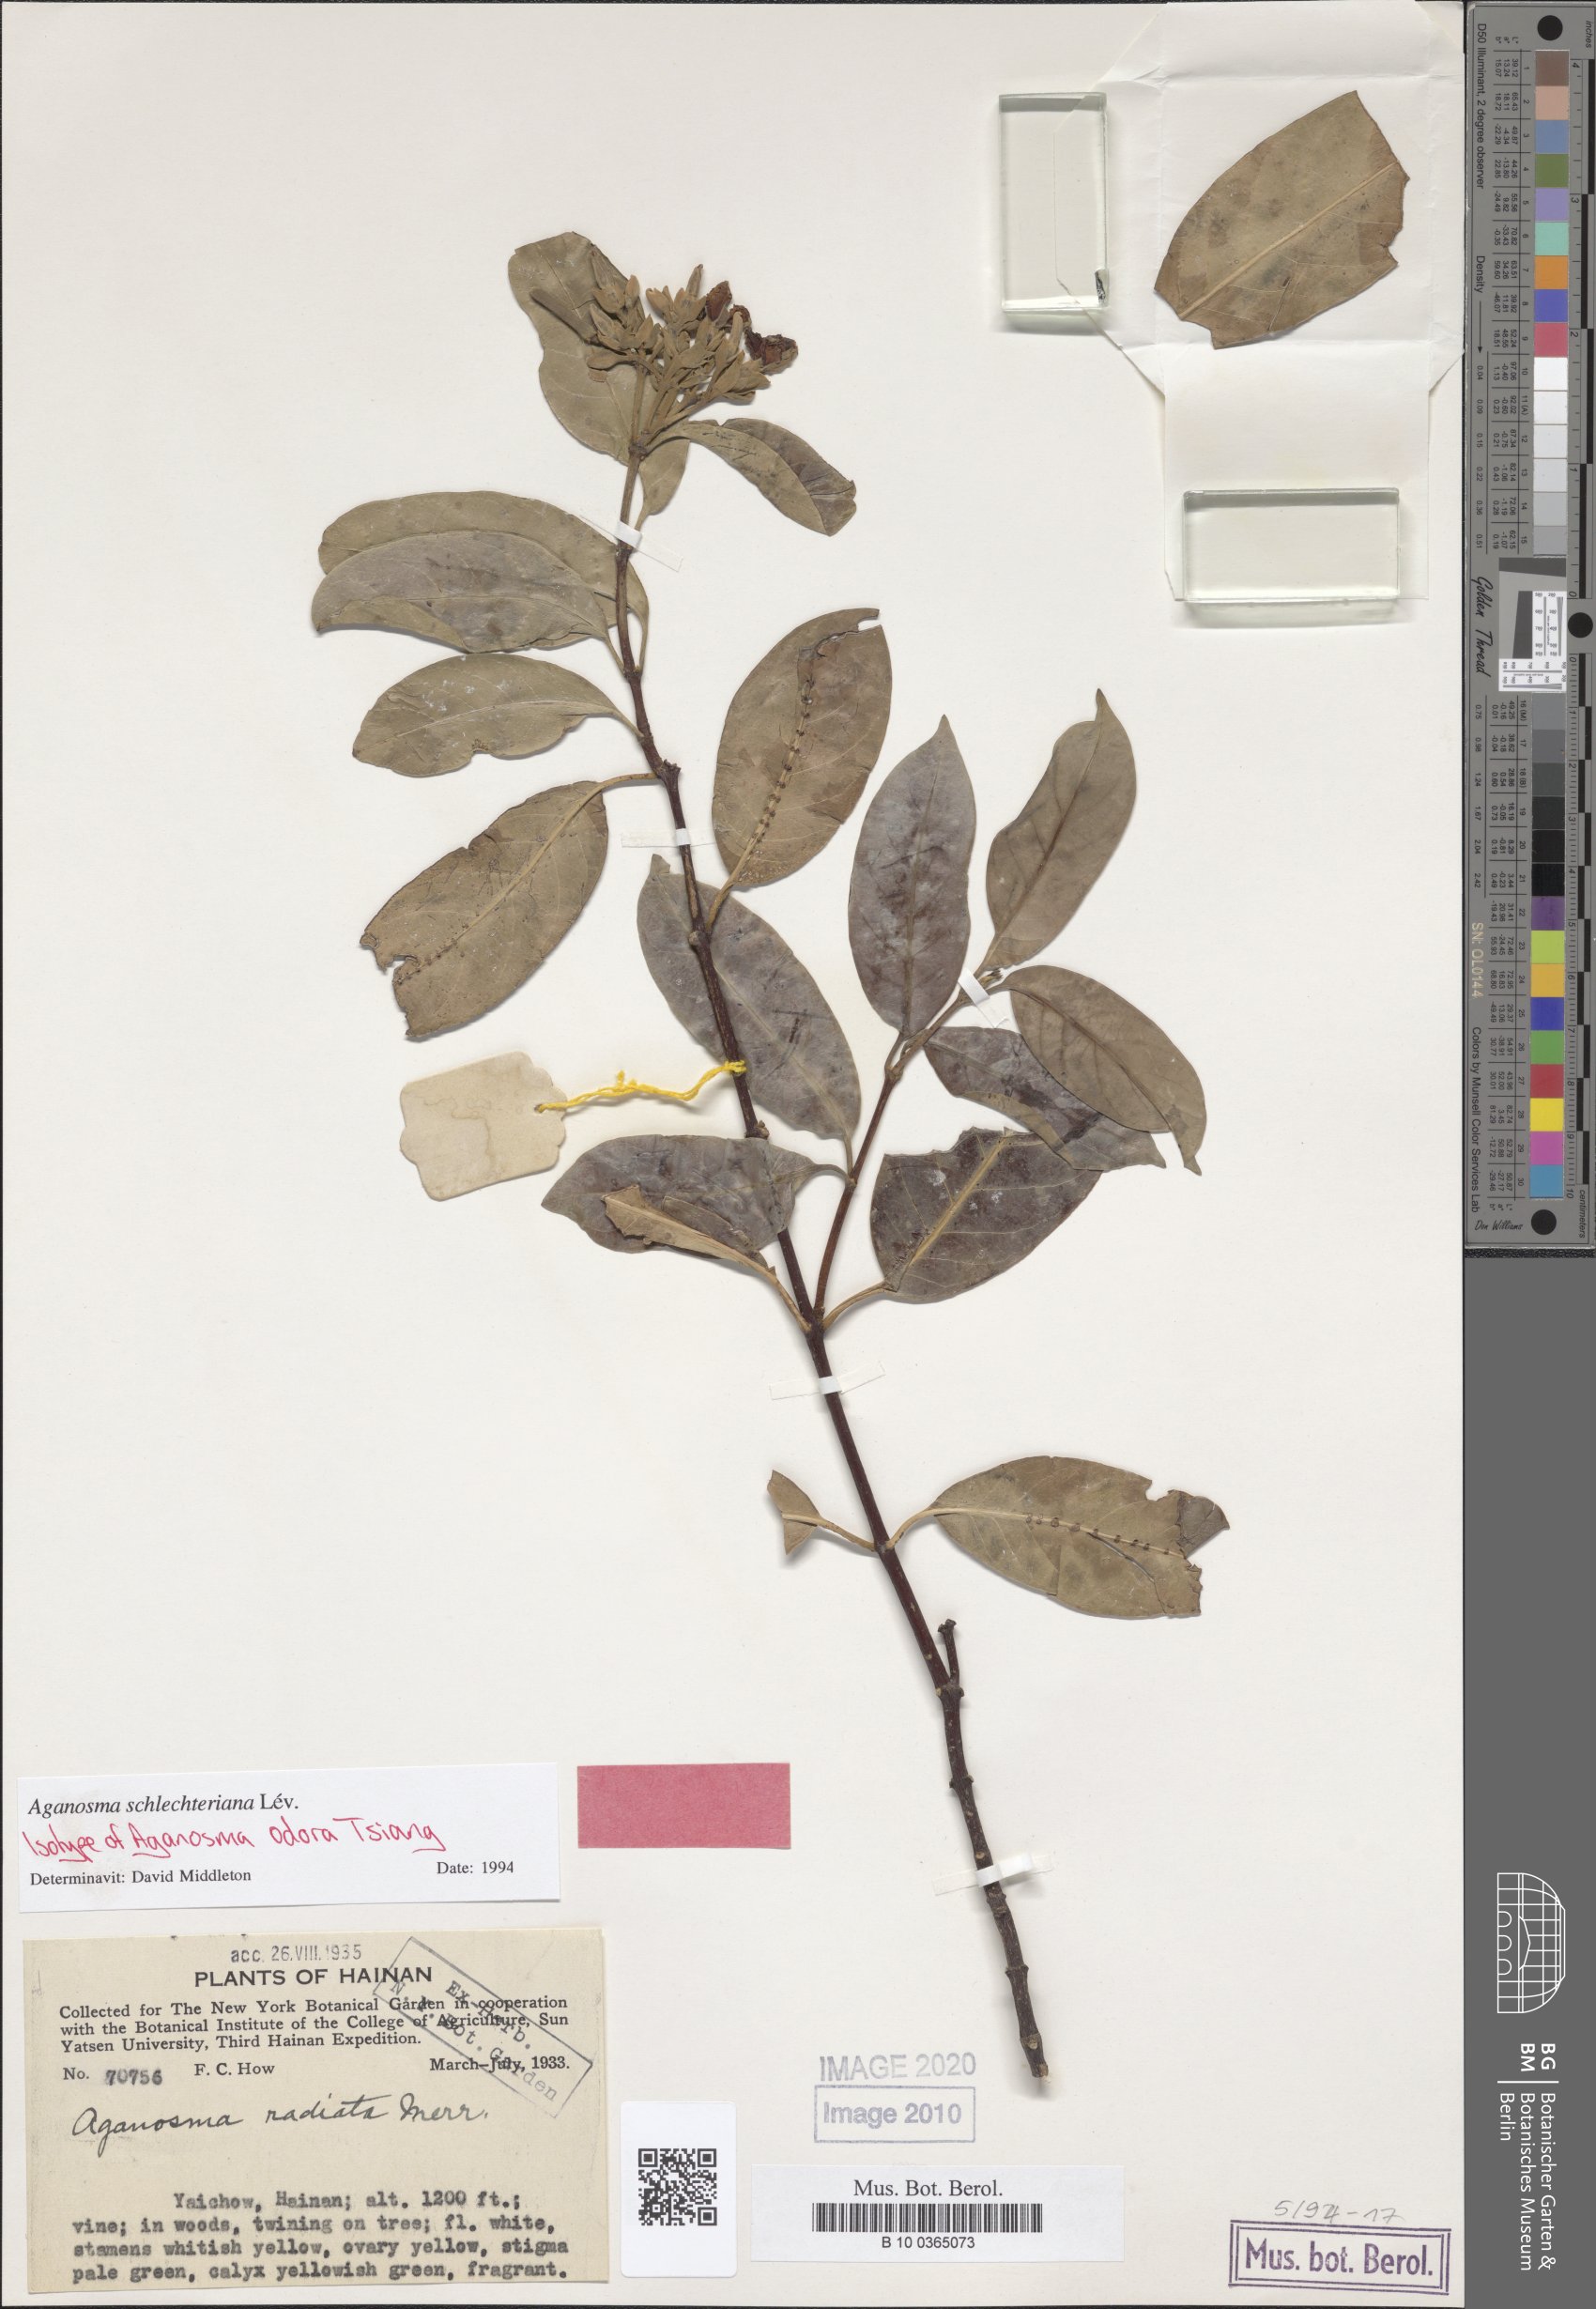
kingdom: Plantae
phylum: Tracheophyta
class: Magnoliopsida
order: Gentianales
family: Apocynaceae
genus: Aganosma
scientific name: Aganosma schlechteriana
